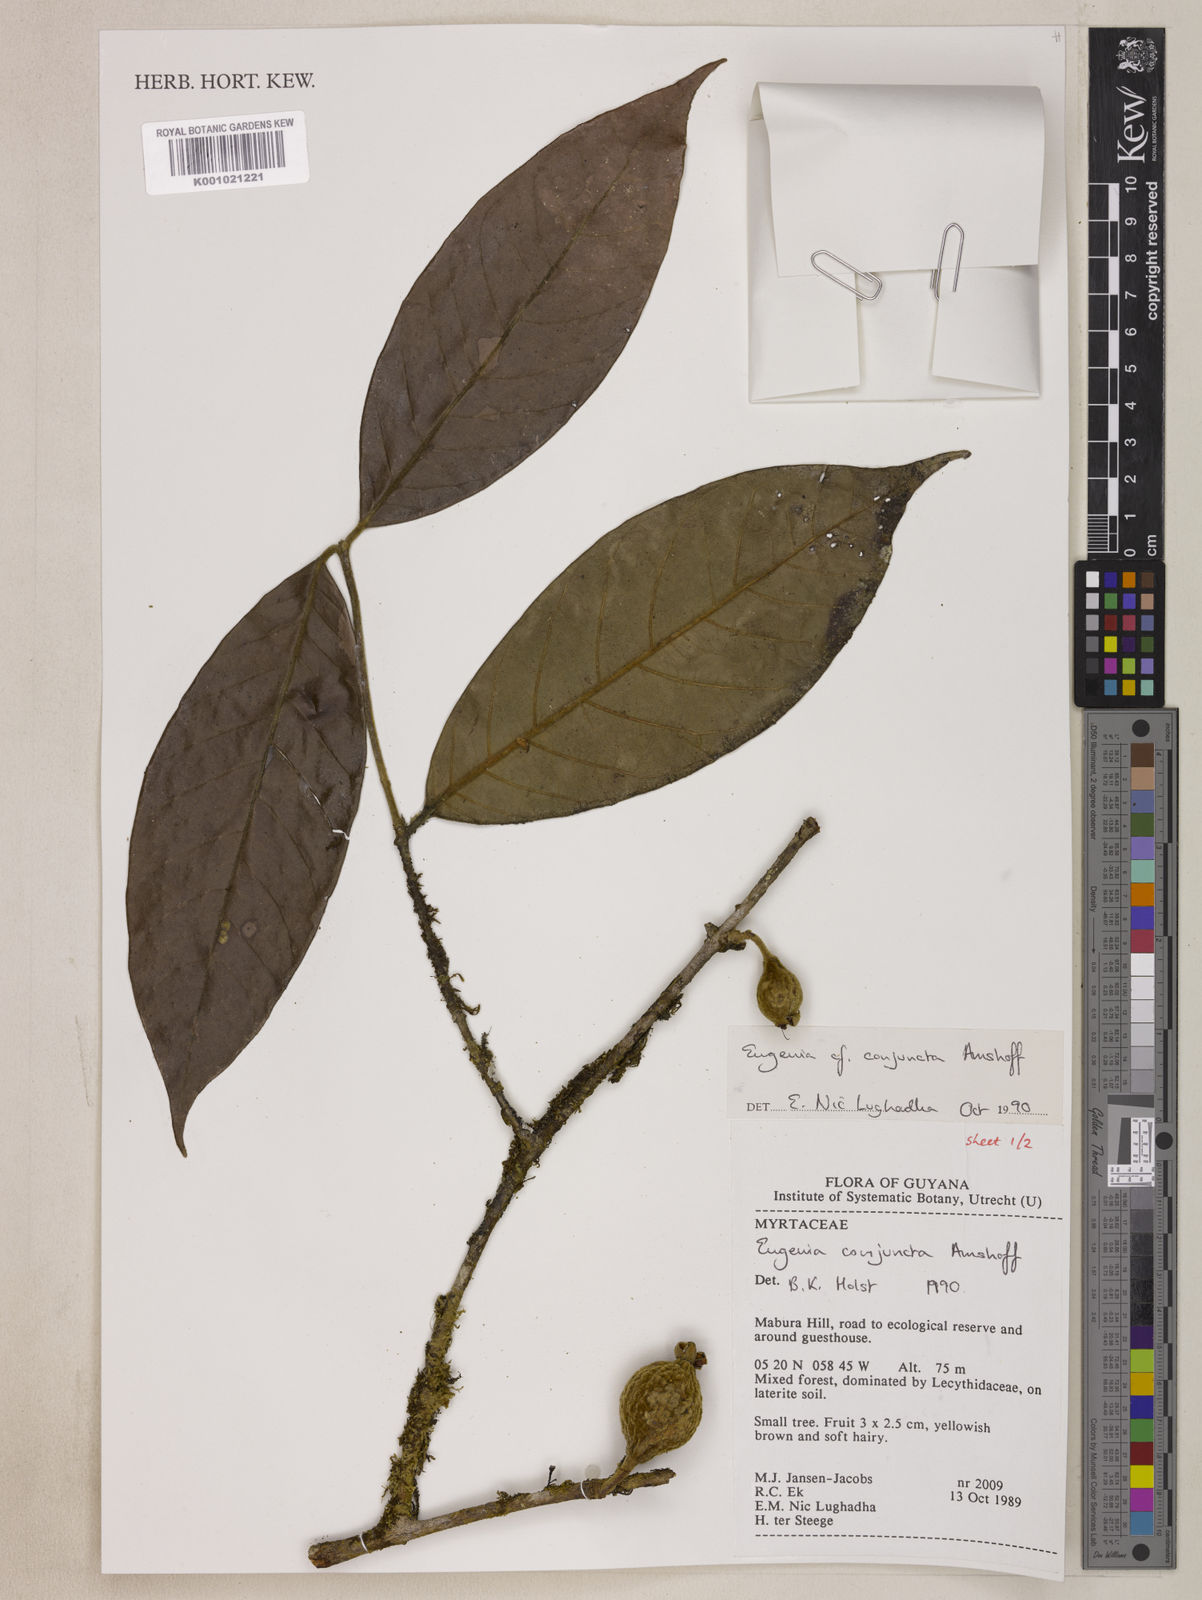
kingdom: Plantae
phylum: Tracheophyta
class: Magnoliopsida
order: Myrtales
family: Myrtaceae
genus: Eugenia
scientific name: Eugenia conjuncta
